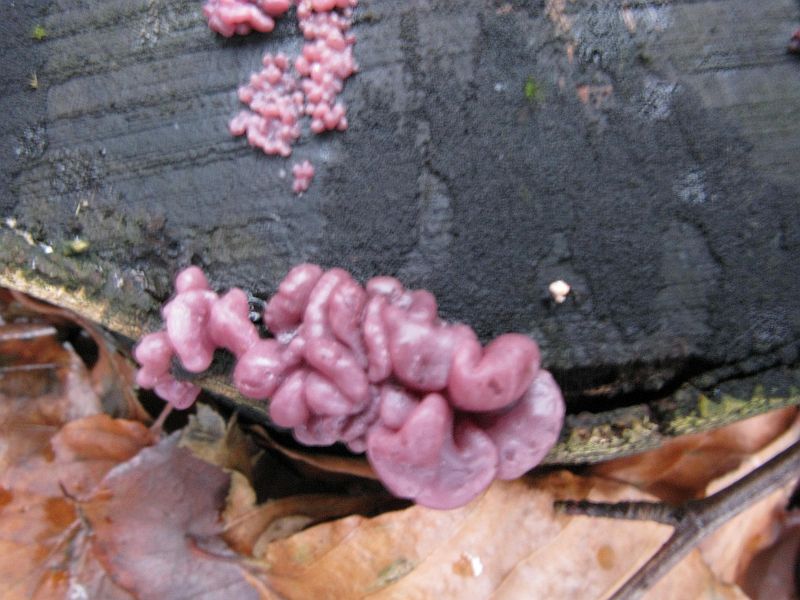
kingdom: Fungi
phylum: Ascomycota
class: Leotiomycetes
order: Helotiales
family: Gelatinodiscaceae
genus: Ascocoryne
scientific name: Ascocoryne sarcoides
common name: rødlilla sejskive
